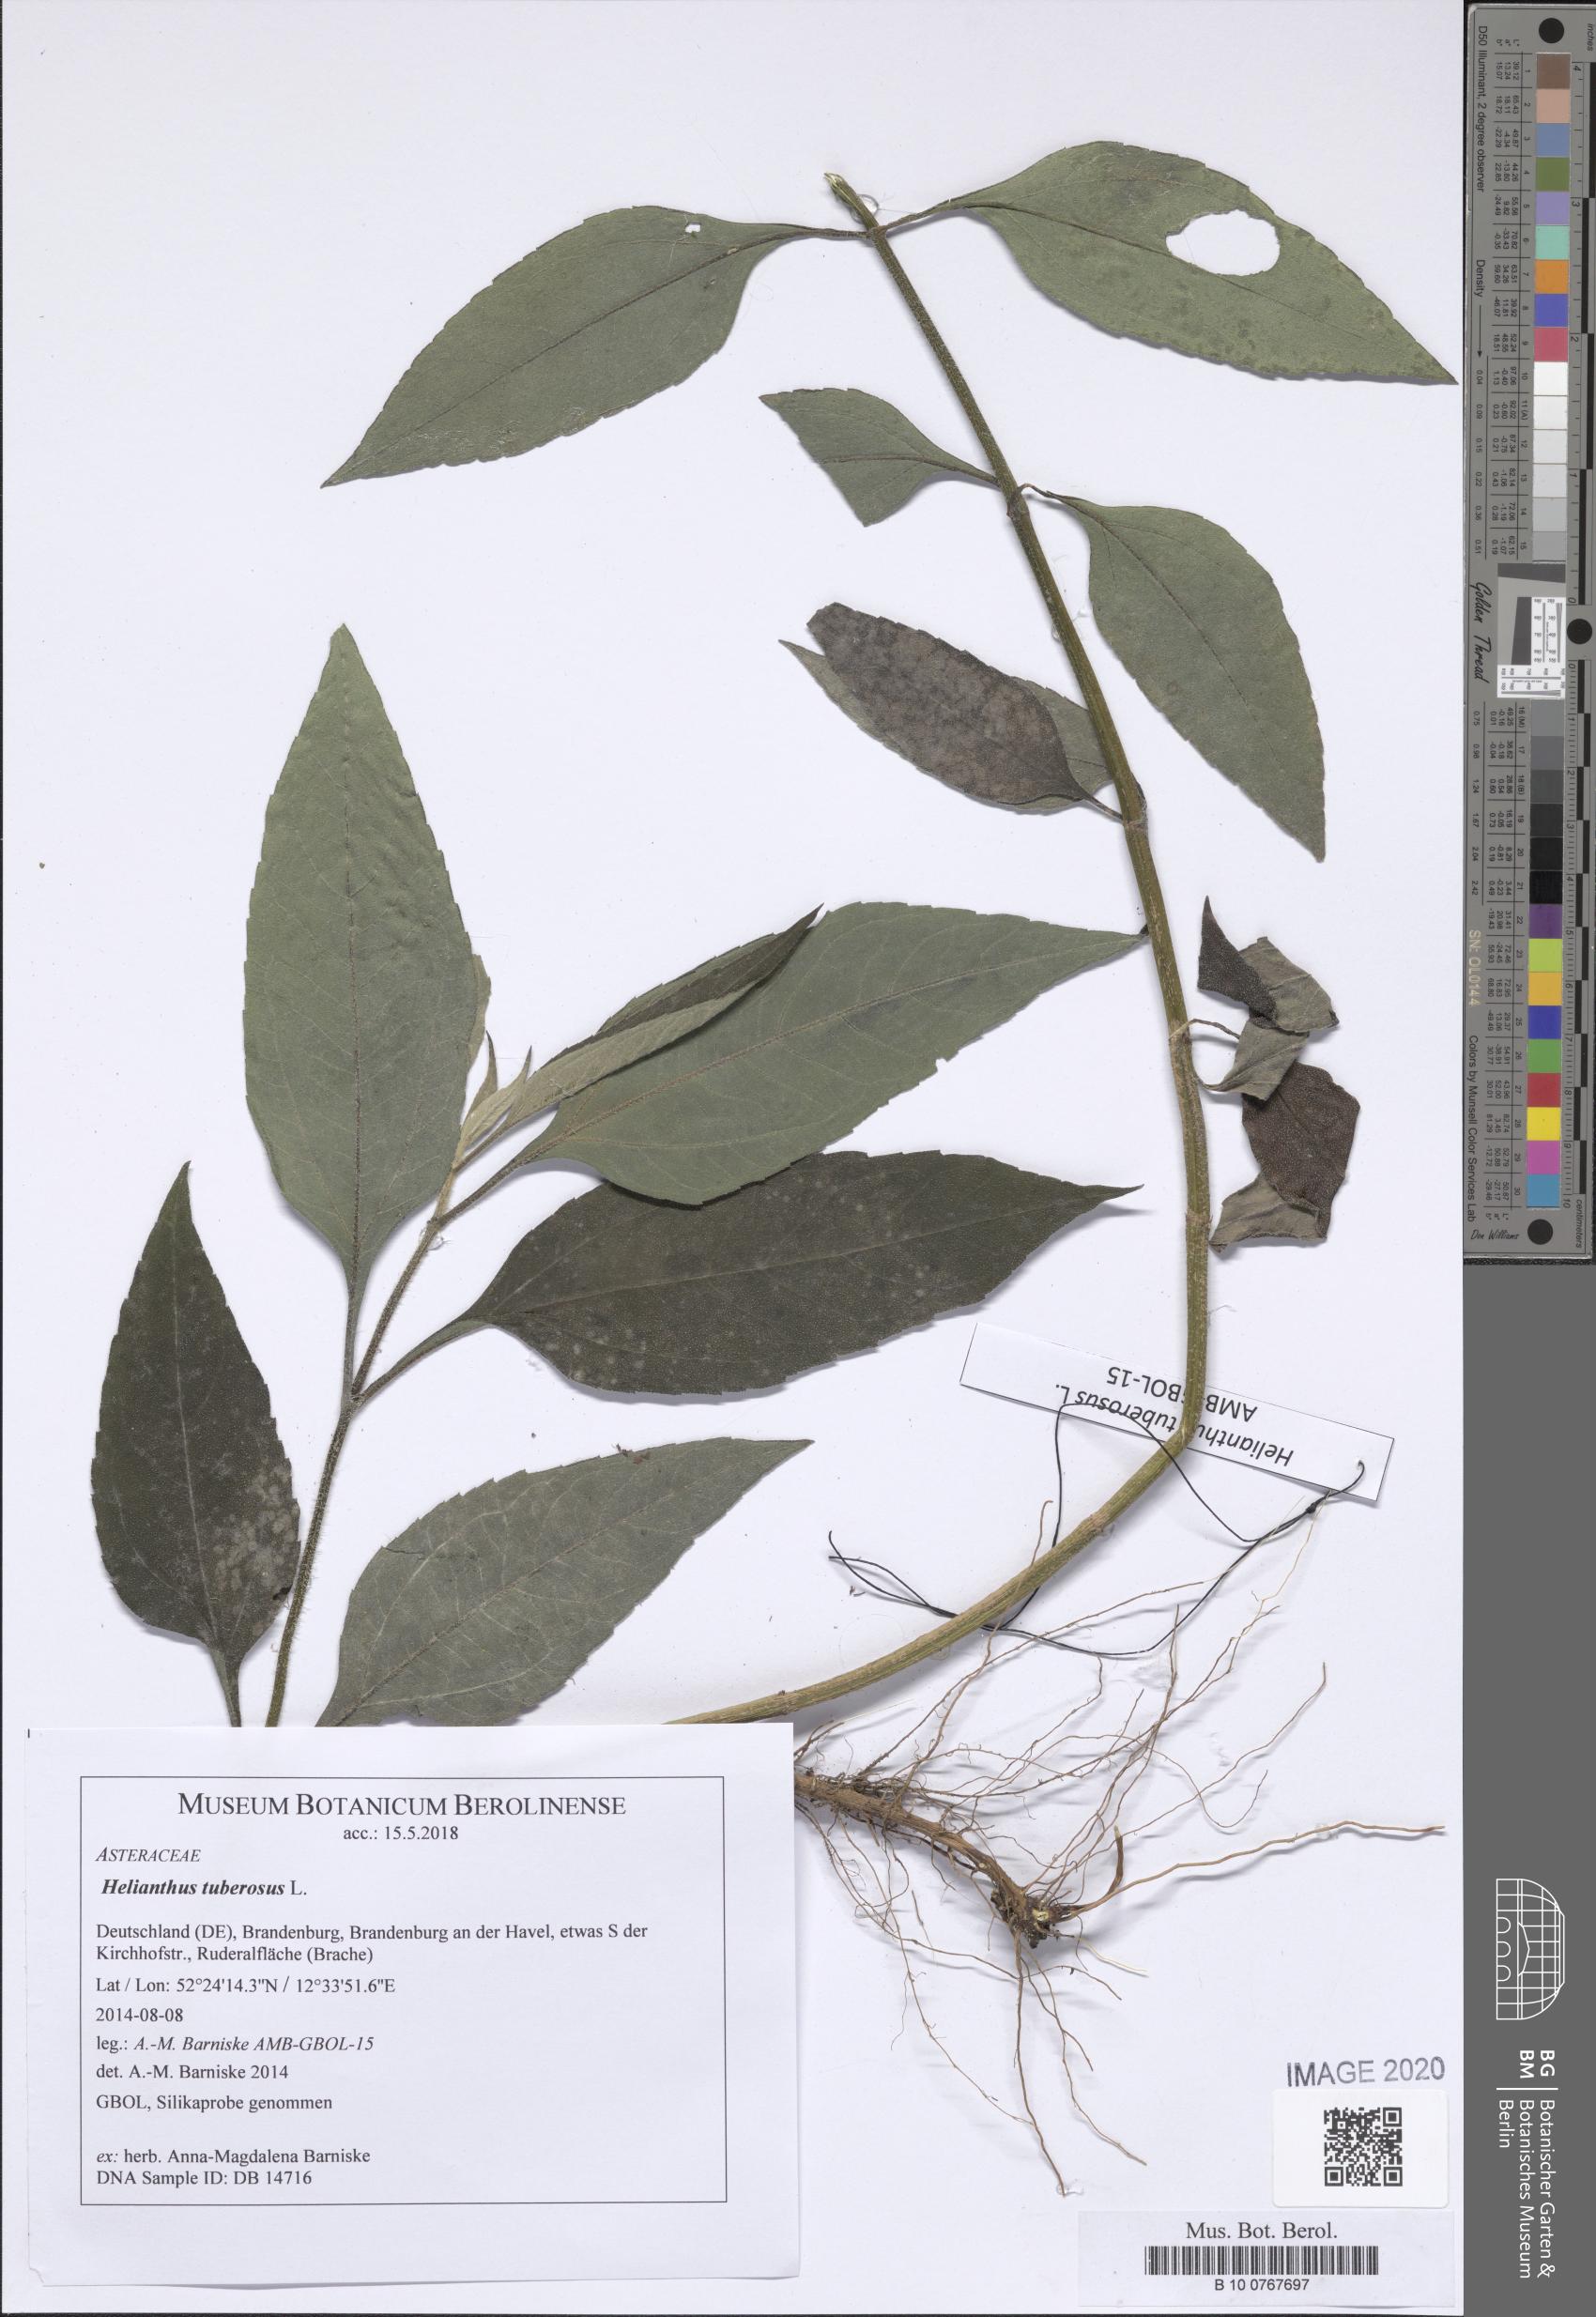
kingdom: Plantae
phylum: Tracheophyta
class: Magnoliopsida
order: Asterales
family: Asteraceae
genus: Helianthus
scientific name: Helianthus tuberosus
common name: Jerusalem artichoke
